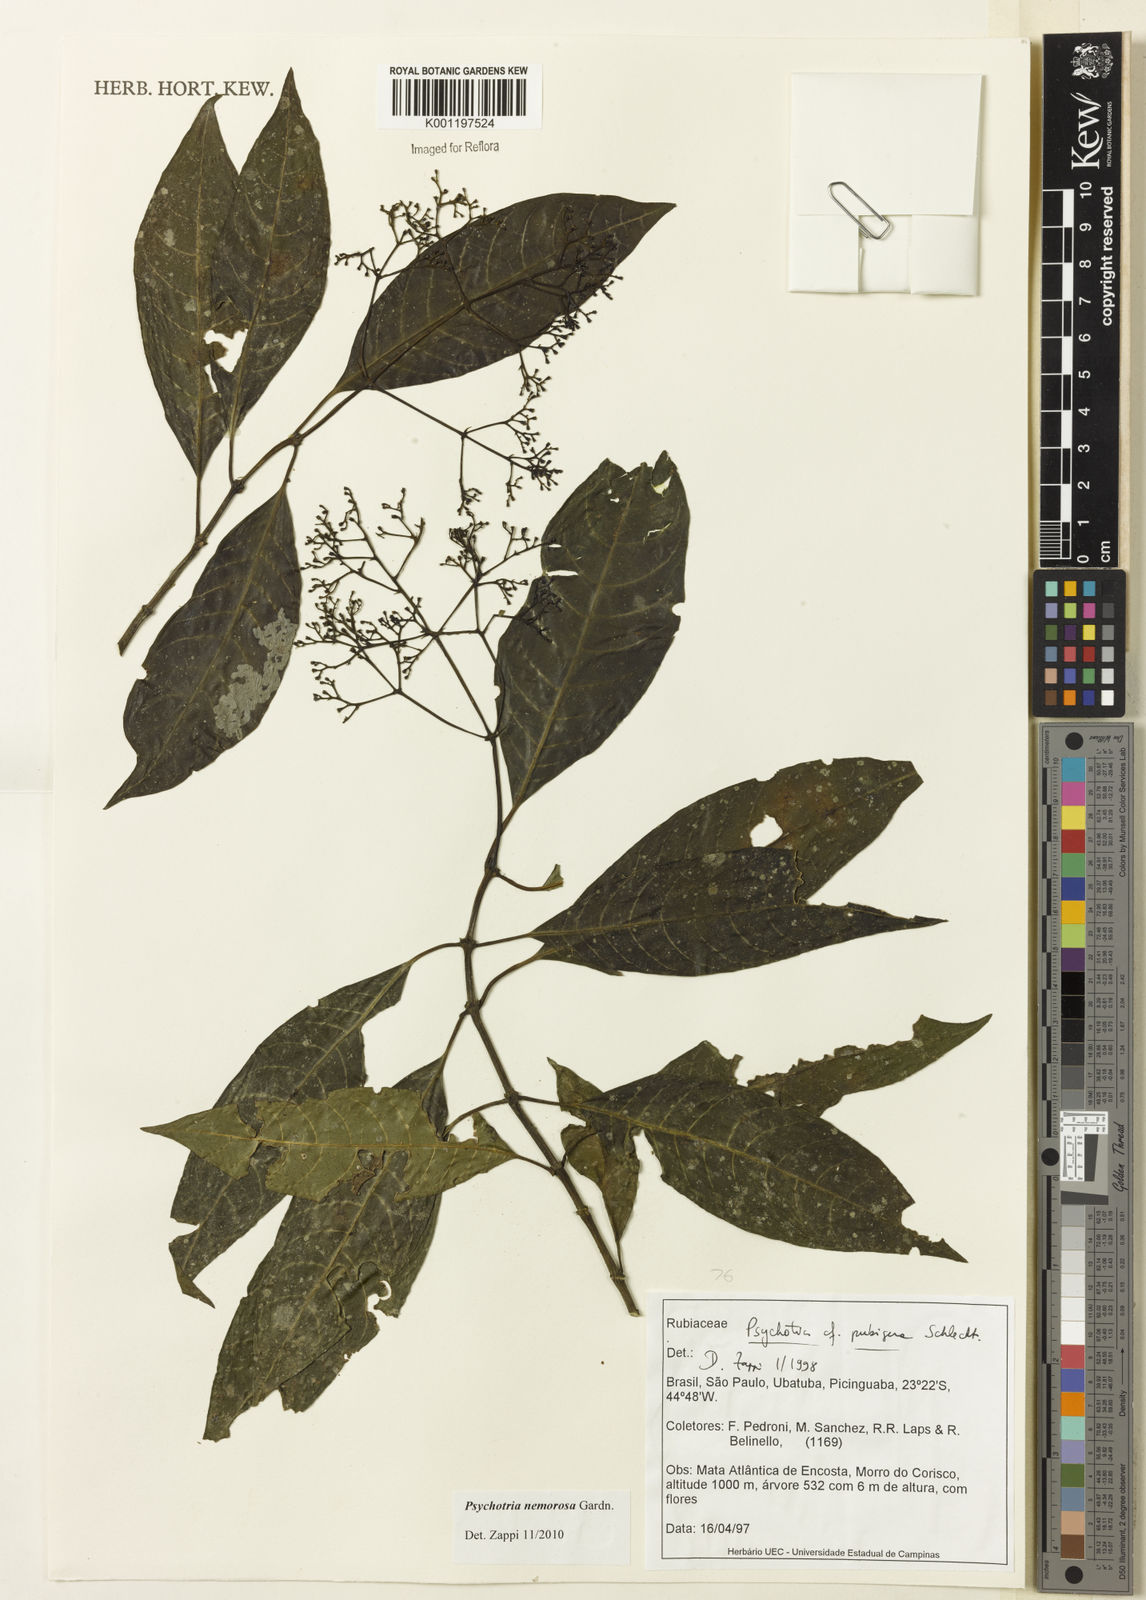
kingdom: Plantae
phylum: Tracheophyta
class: Magnoliopsida
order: Gentianales
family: Rubiaceae
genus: Psychotria
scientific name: Psychotria nemorosa
